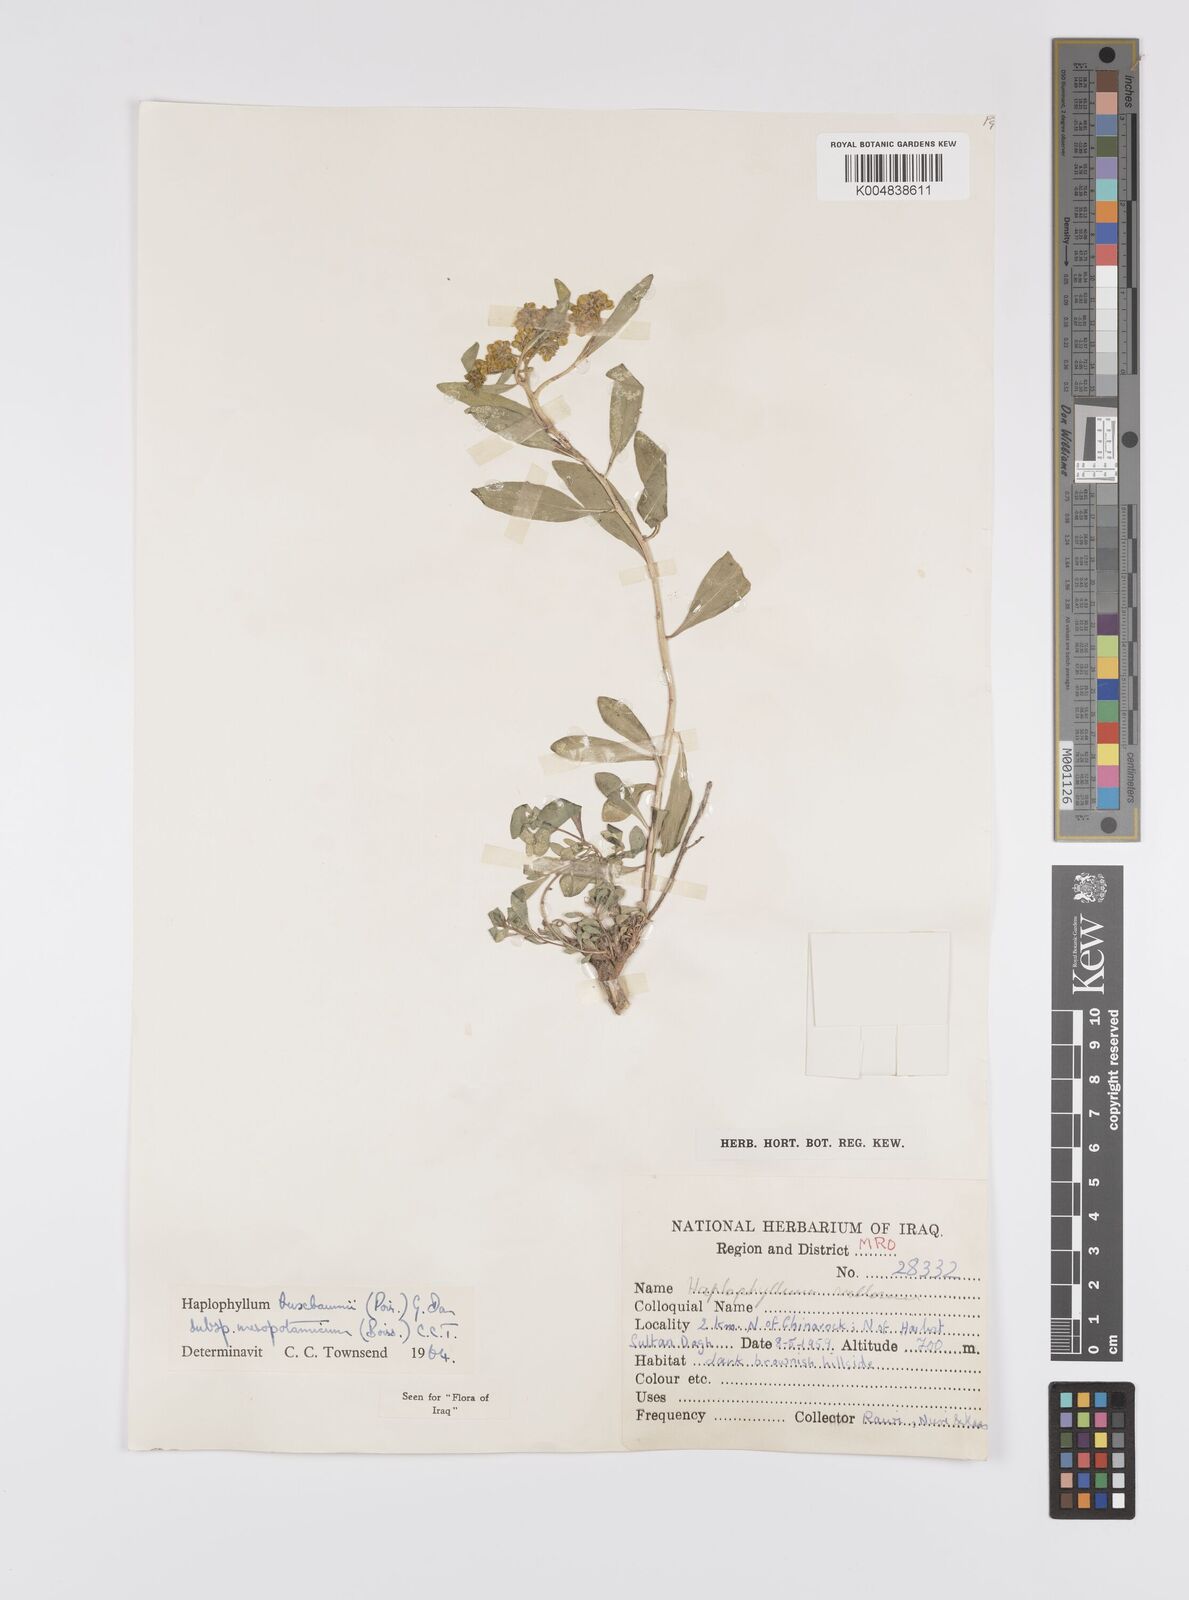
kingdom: Plantae
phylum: Tracheophyta
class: Magnoliopsida
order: Sapindales
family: Rutaceae
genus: Haplophyllum
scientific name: Haplophyllum buxbaumii
